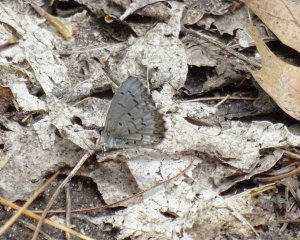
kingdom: Animalia
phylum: Arthropoda
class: Insecta
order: Lepidoptera
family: Lycaenidae
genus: Celastrina
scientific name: Celastrina
